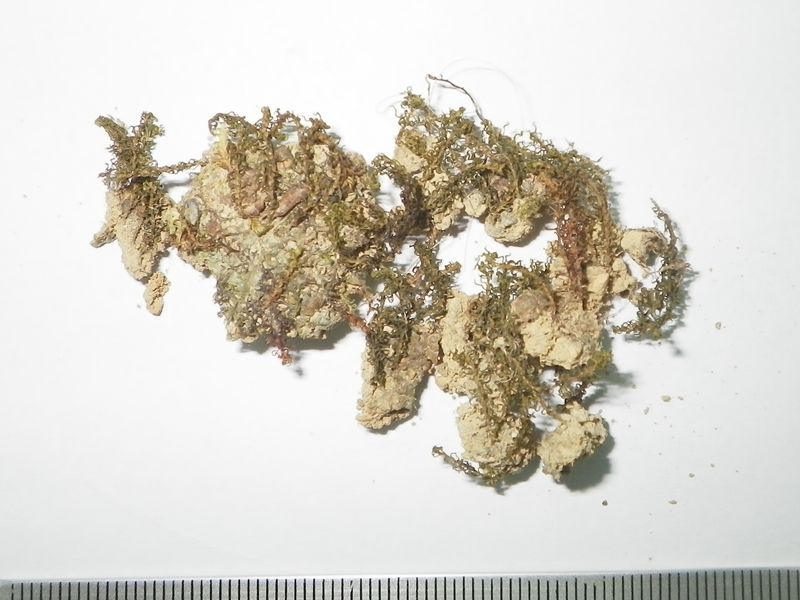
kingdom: Plantae
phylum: Bryophyta
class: Polytrichopsida
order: Polytrichales
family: Polytrichaceae
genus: Pogonatum
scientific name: Pogonatum nudiusculum
